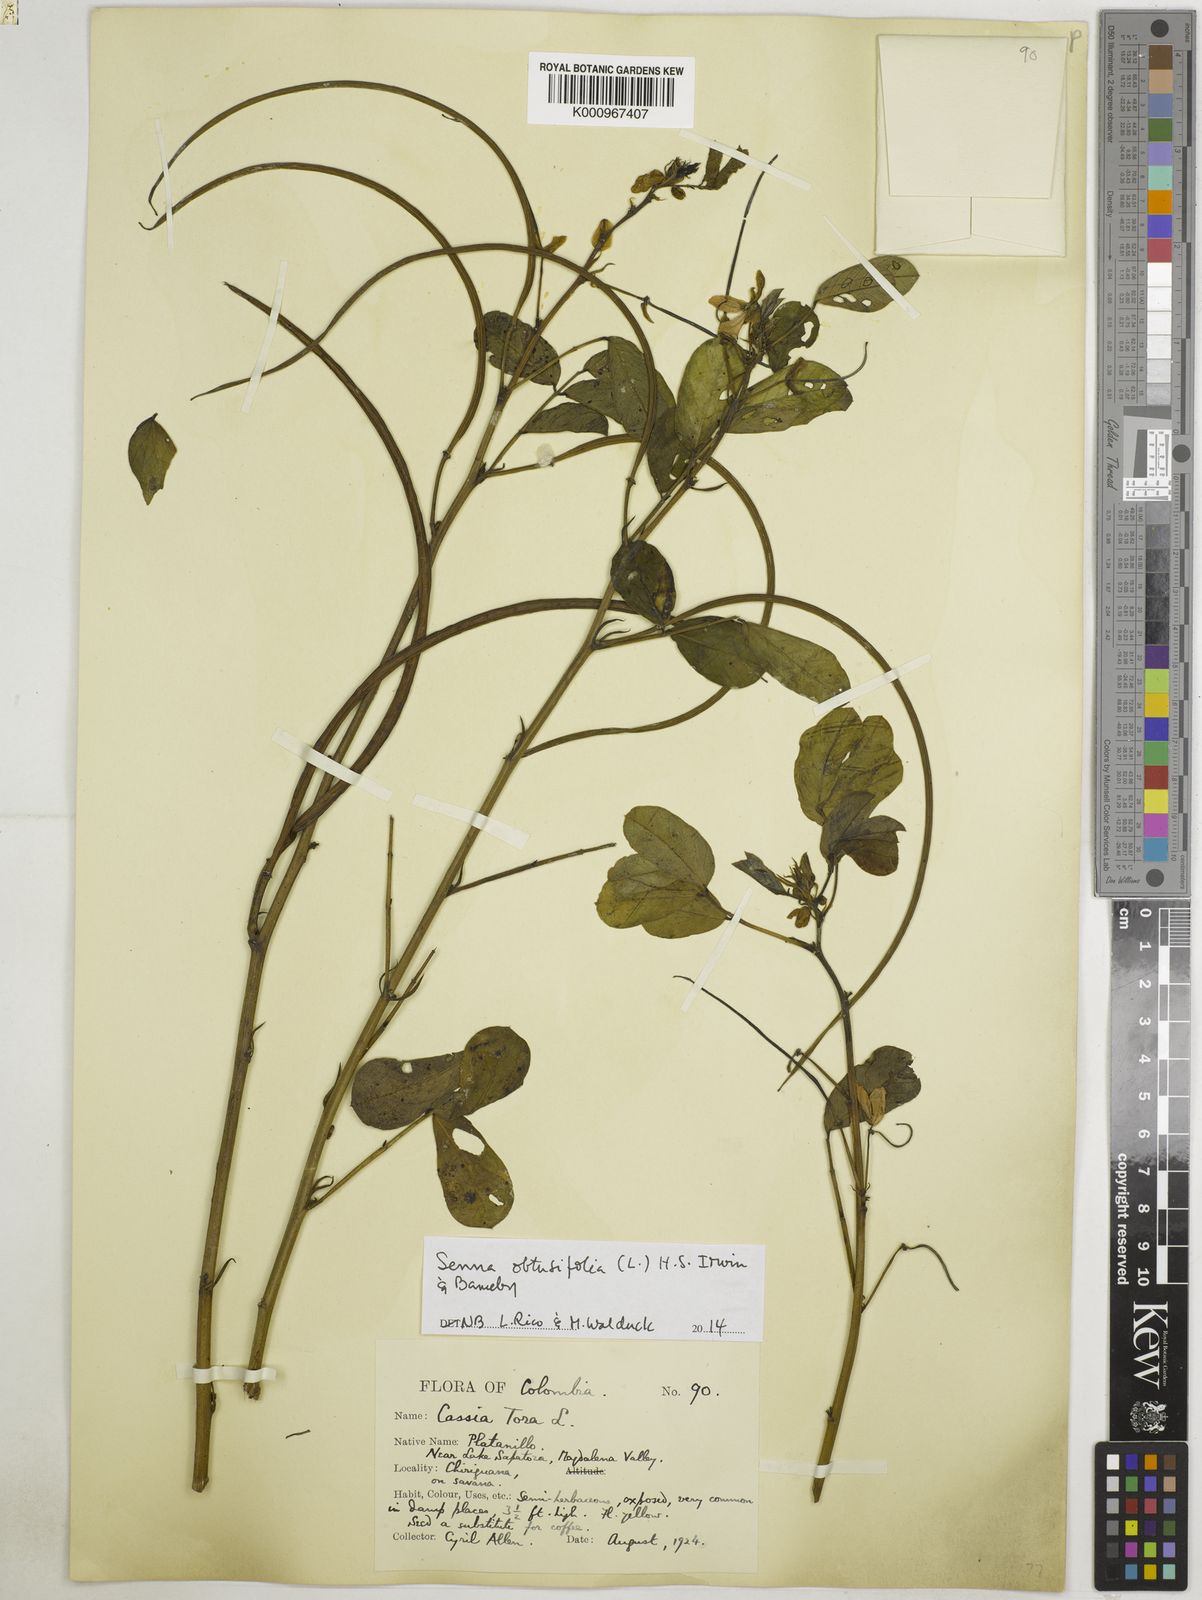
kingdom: Plantae
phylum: Tracheophyta
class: Magnoliopsida
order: Fabales
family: Fabaceae
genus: Senna
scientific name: Senna obtusifolia
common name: Java-bean
